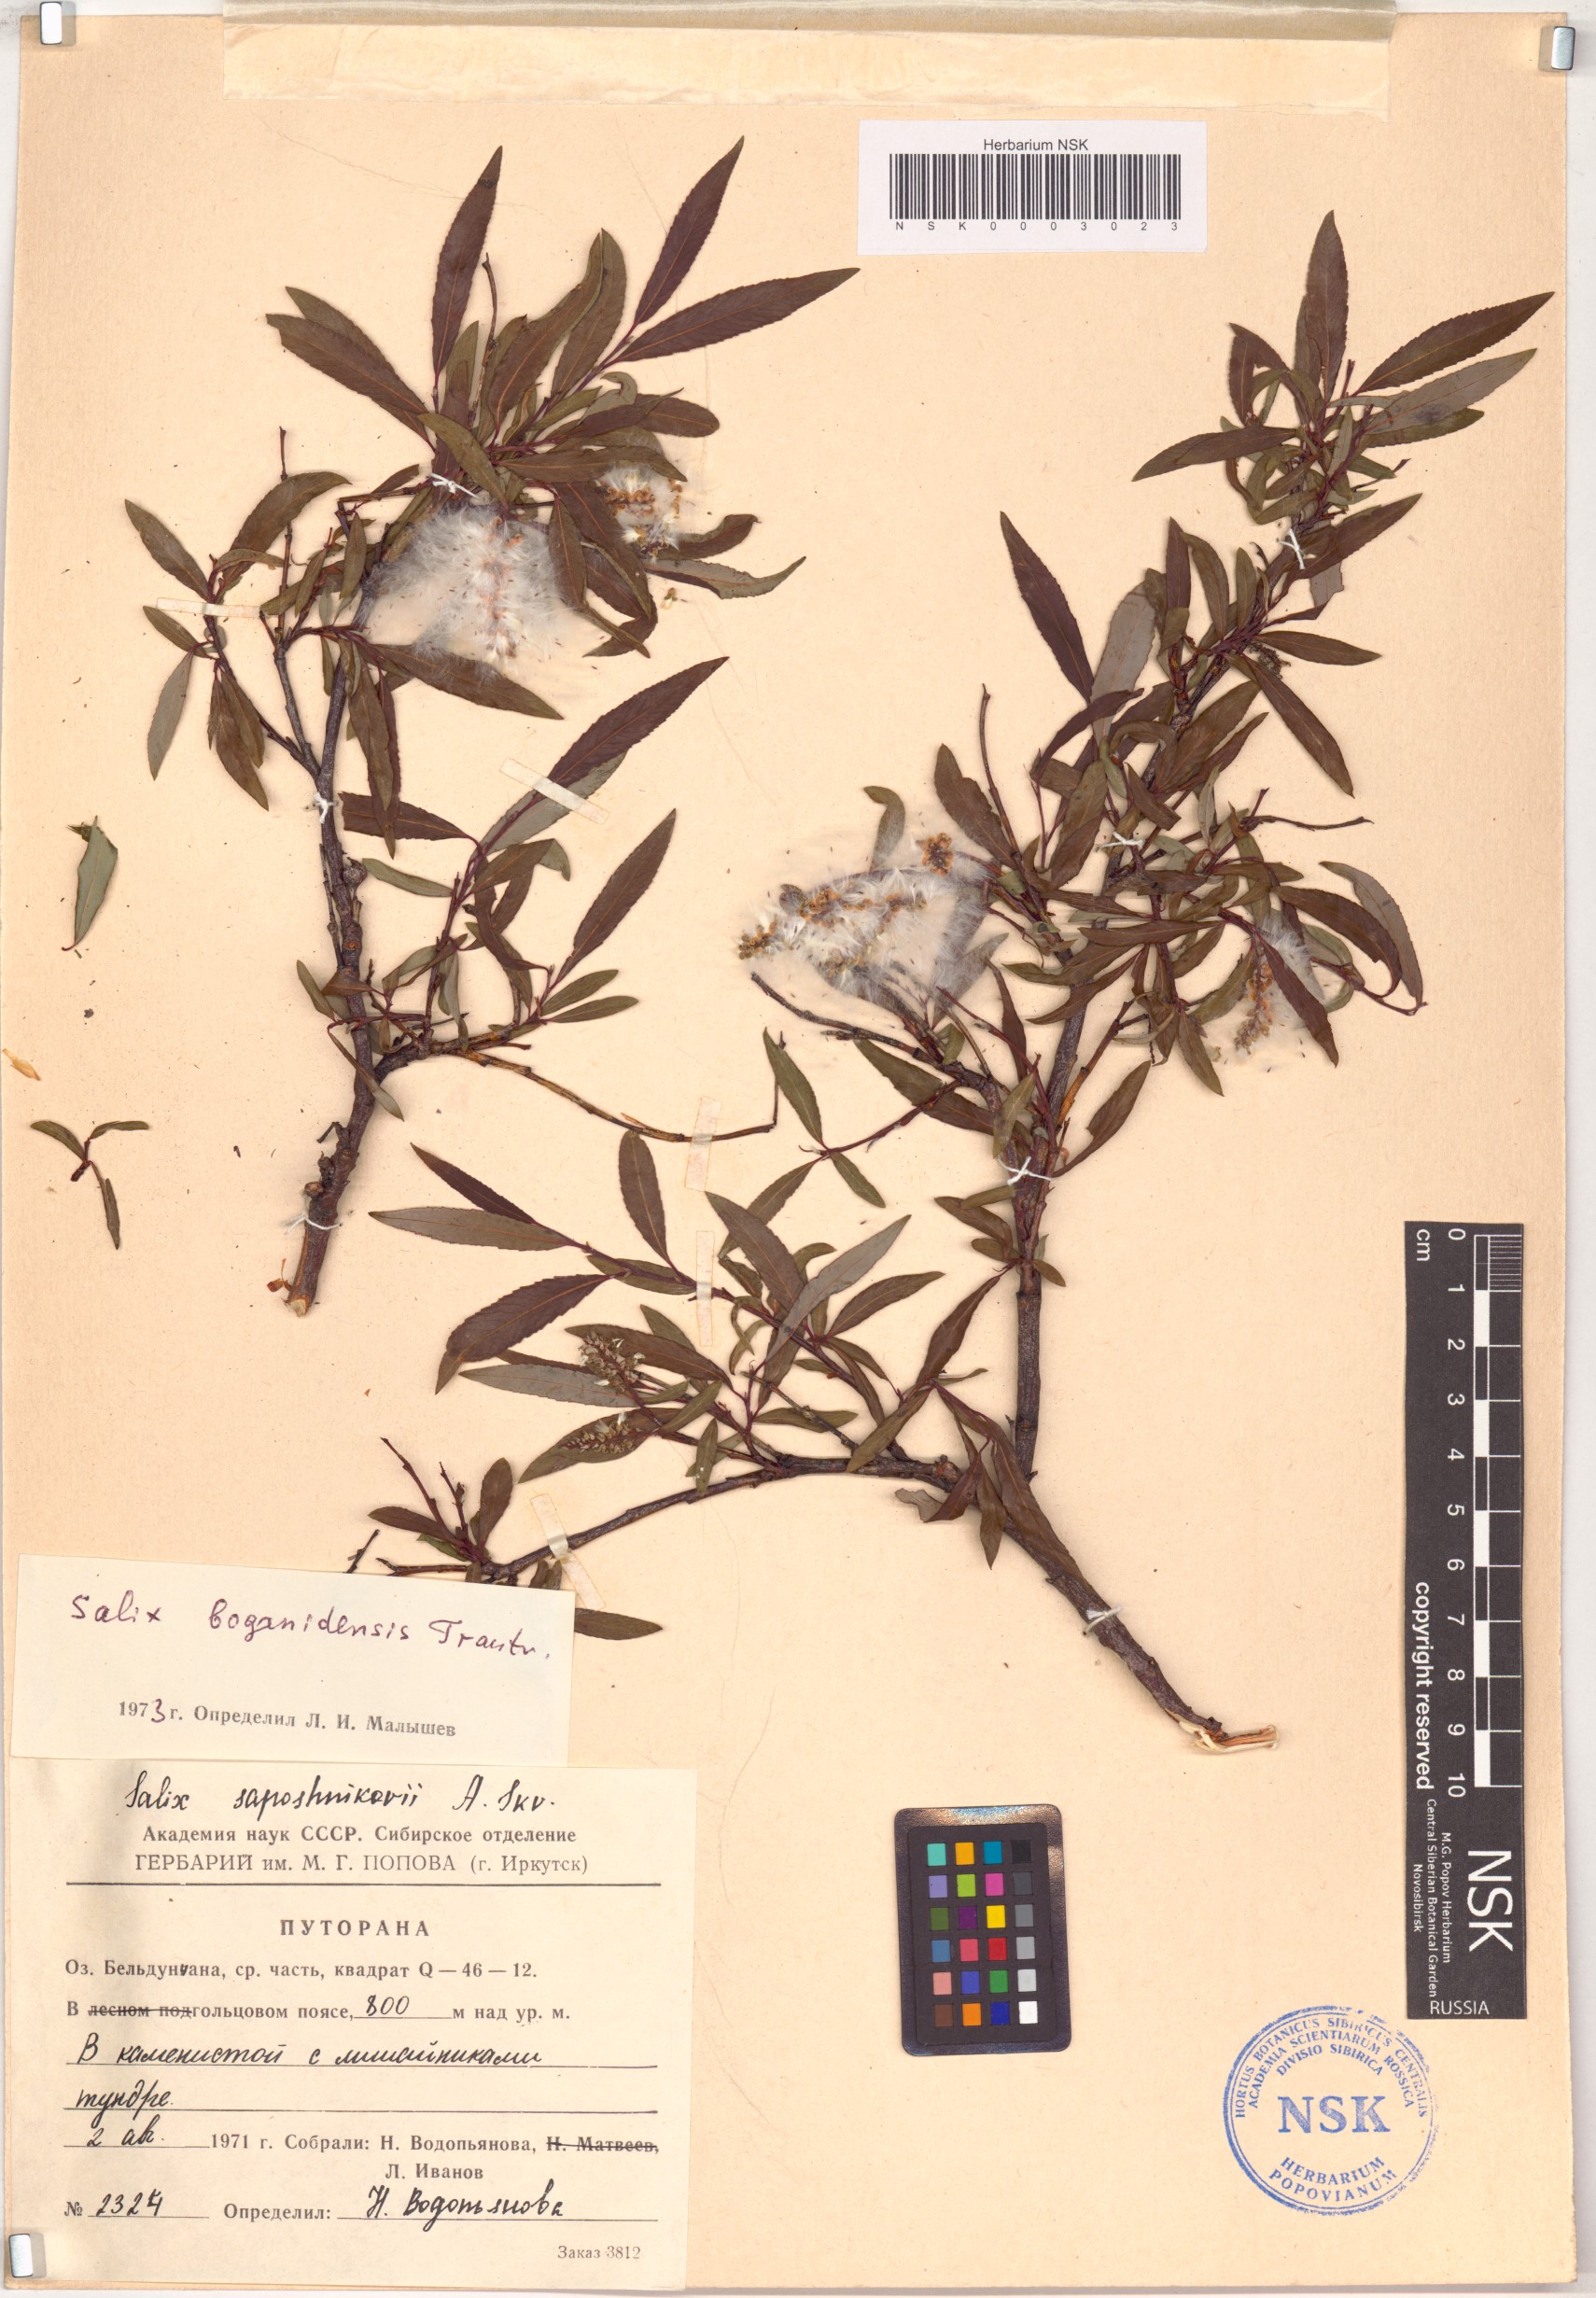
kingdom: Plantae
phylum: Tracheophyta
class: Magnoliopsida
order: Malpighiales
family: Salicaceae
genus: Salix
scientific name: Salix boganidensis
